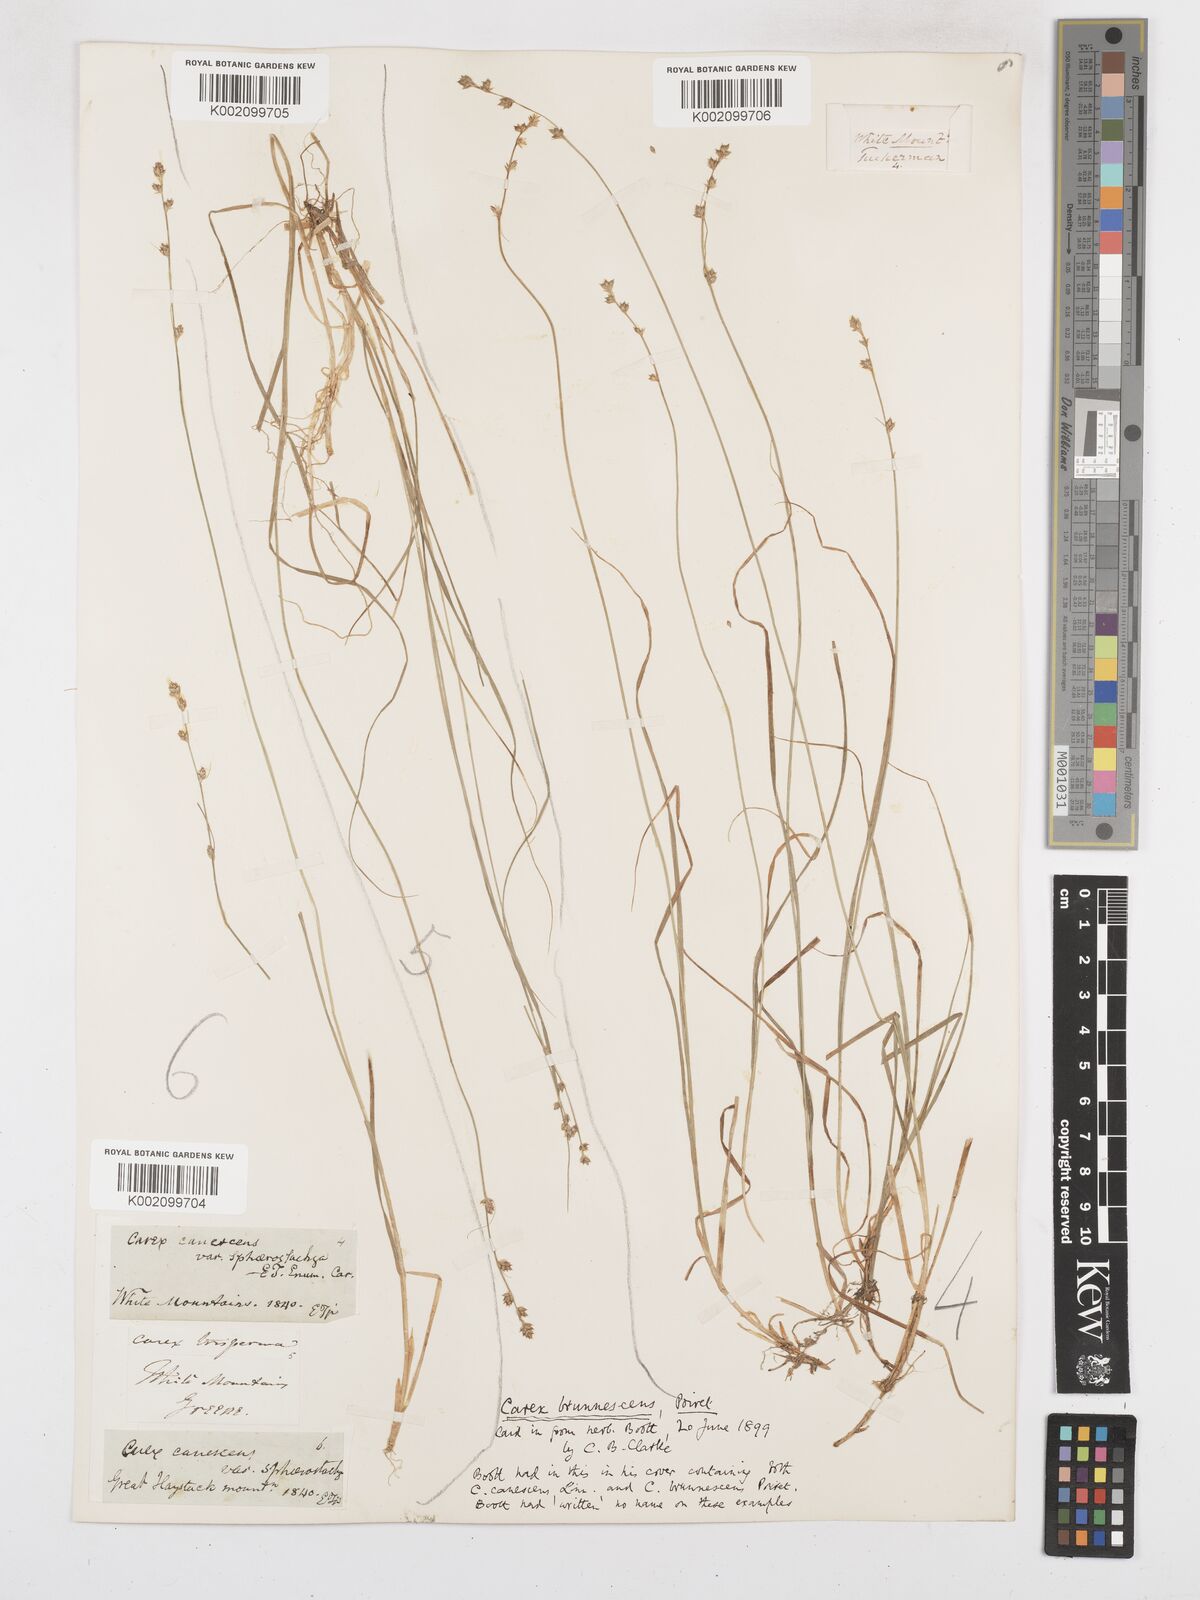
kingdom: Plantae
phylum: Tracheophyta
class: Liliopsida
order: Poales
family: Cyperaceae
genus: Carex
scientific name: Carex brunnescens
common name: Brown sedge
